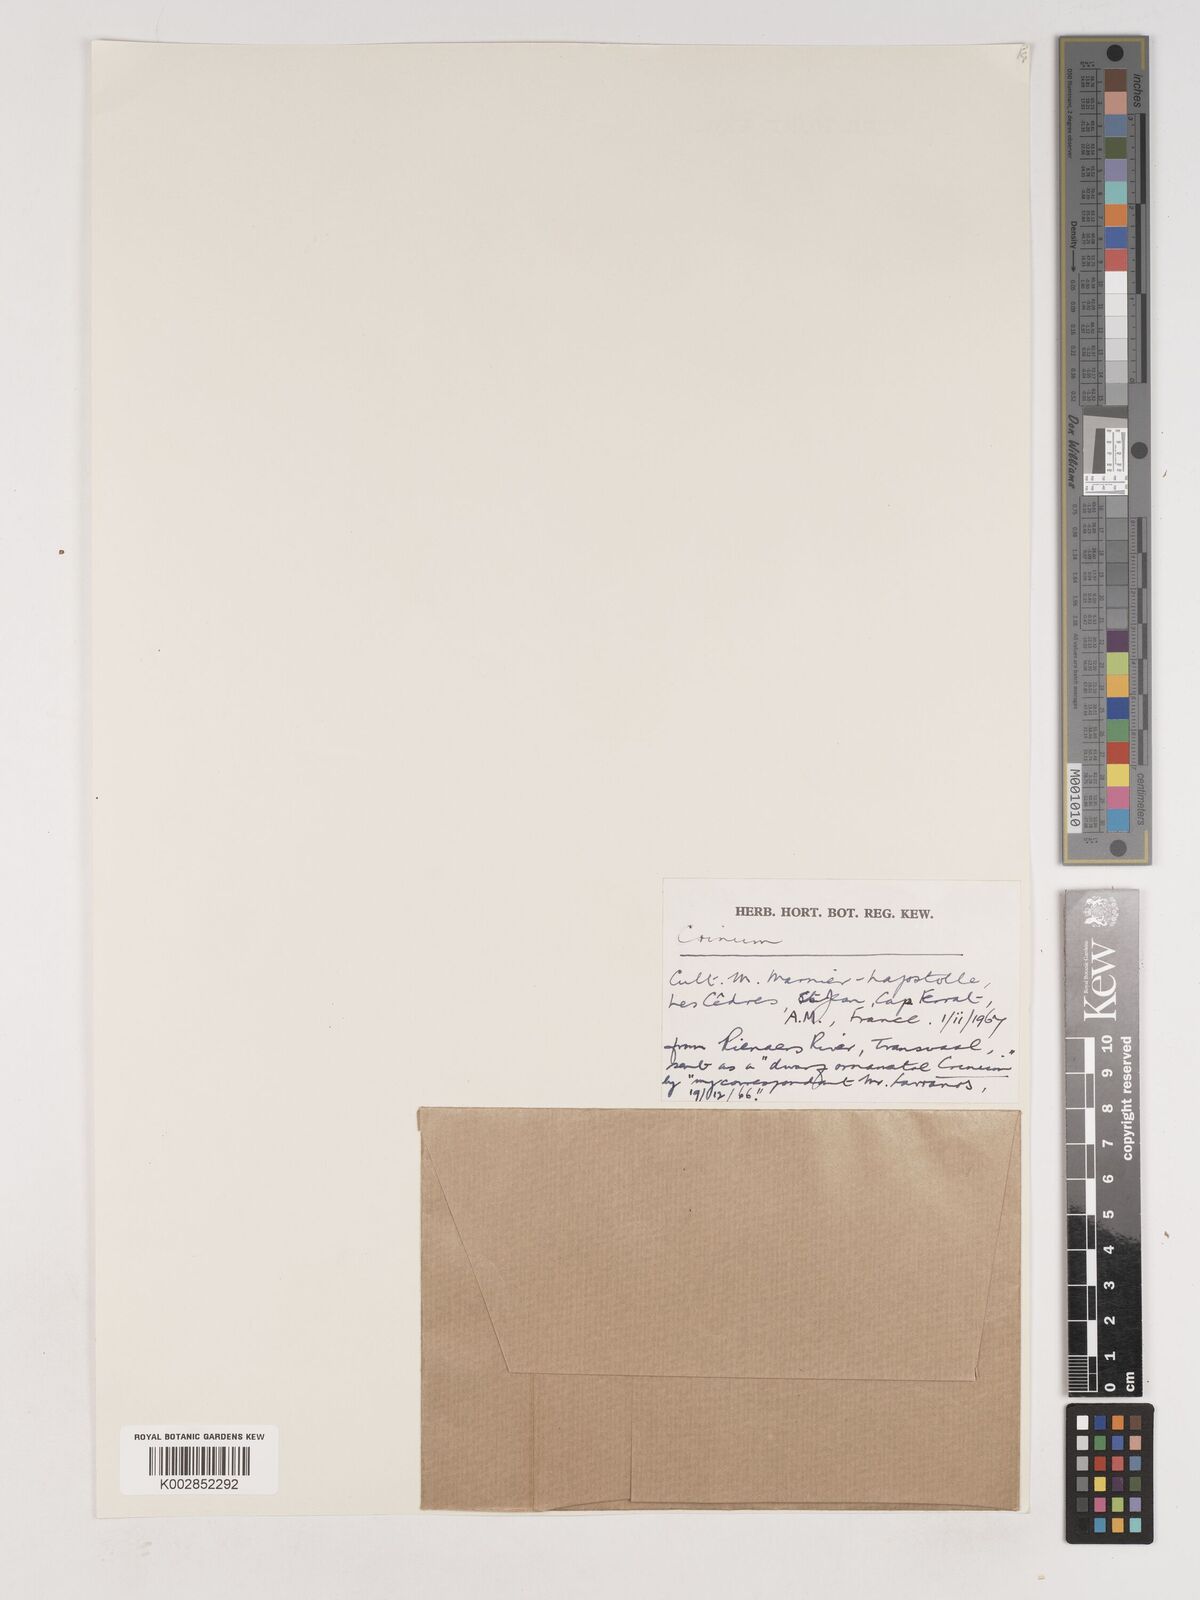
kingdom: Plantae
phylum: Tracheophyta
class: Liliopsida
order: Asparagales
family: Amaryllidaceae
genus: Crinum
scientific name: Crinum
